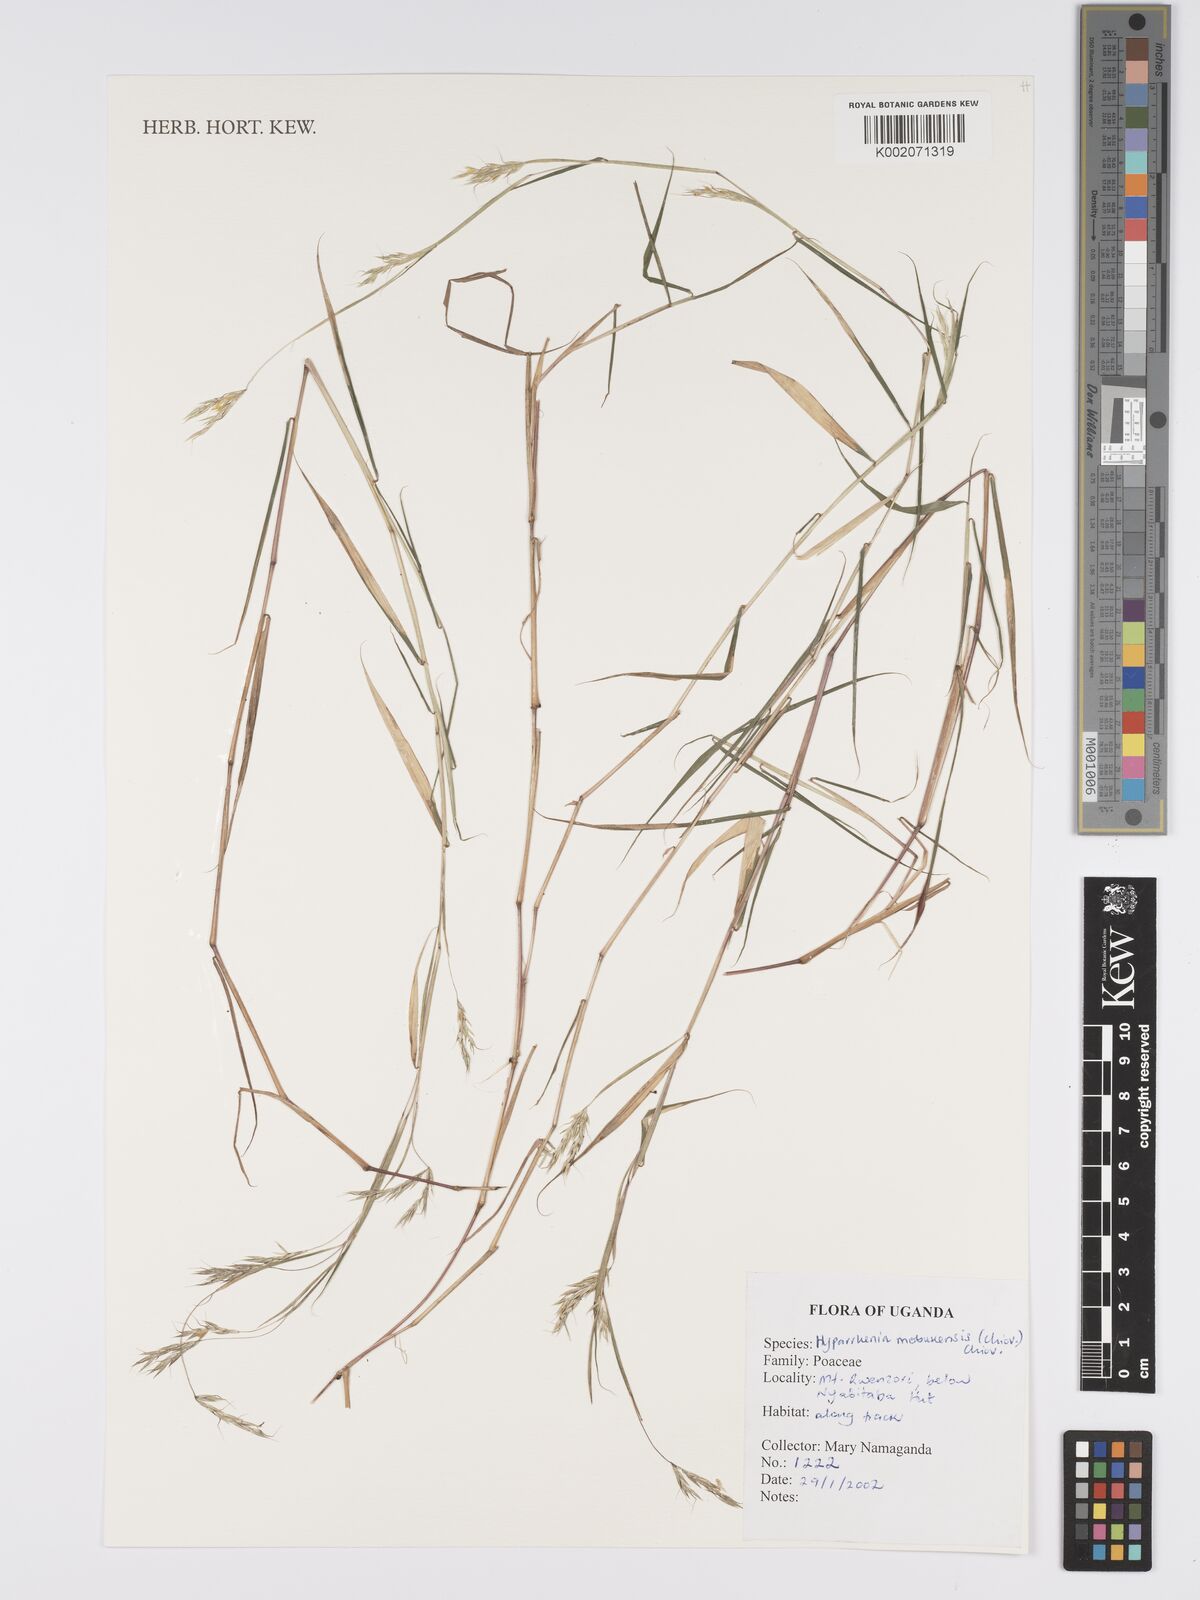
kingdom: Plantae
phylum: Tracheophyta
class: Liliopsida
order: Poales
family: Poaceae
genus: Hyparrhenia
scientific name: Hyparrhenia mobukensis
